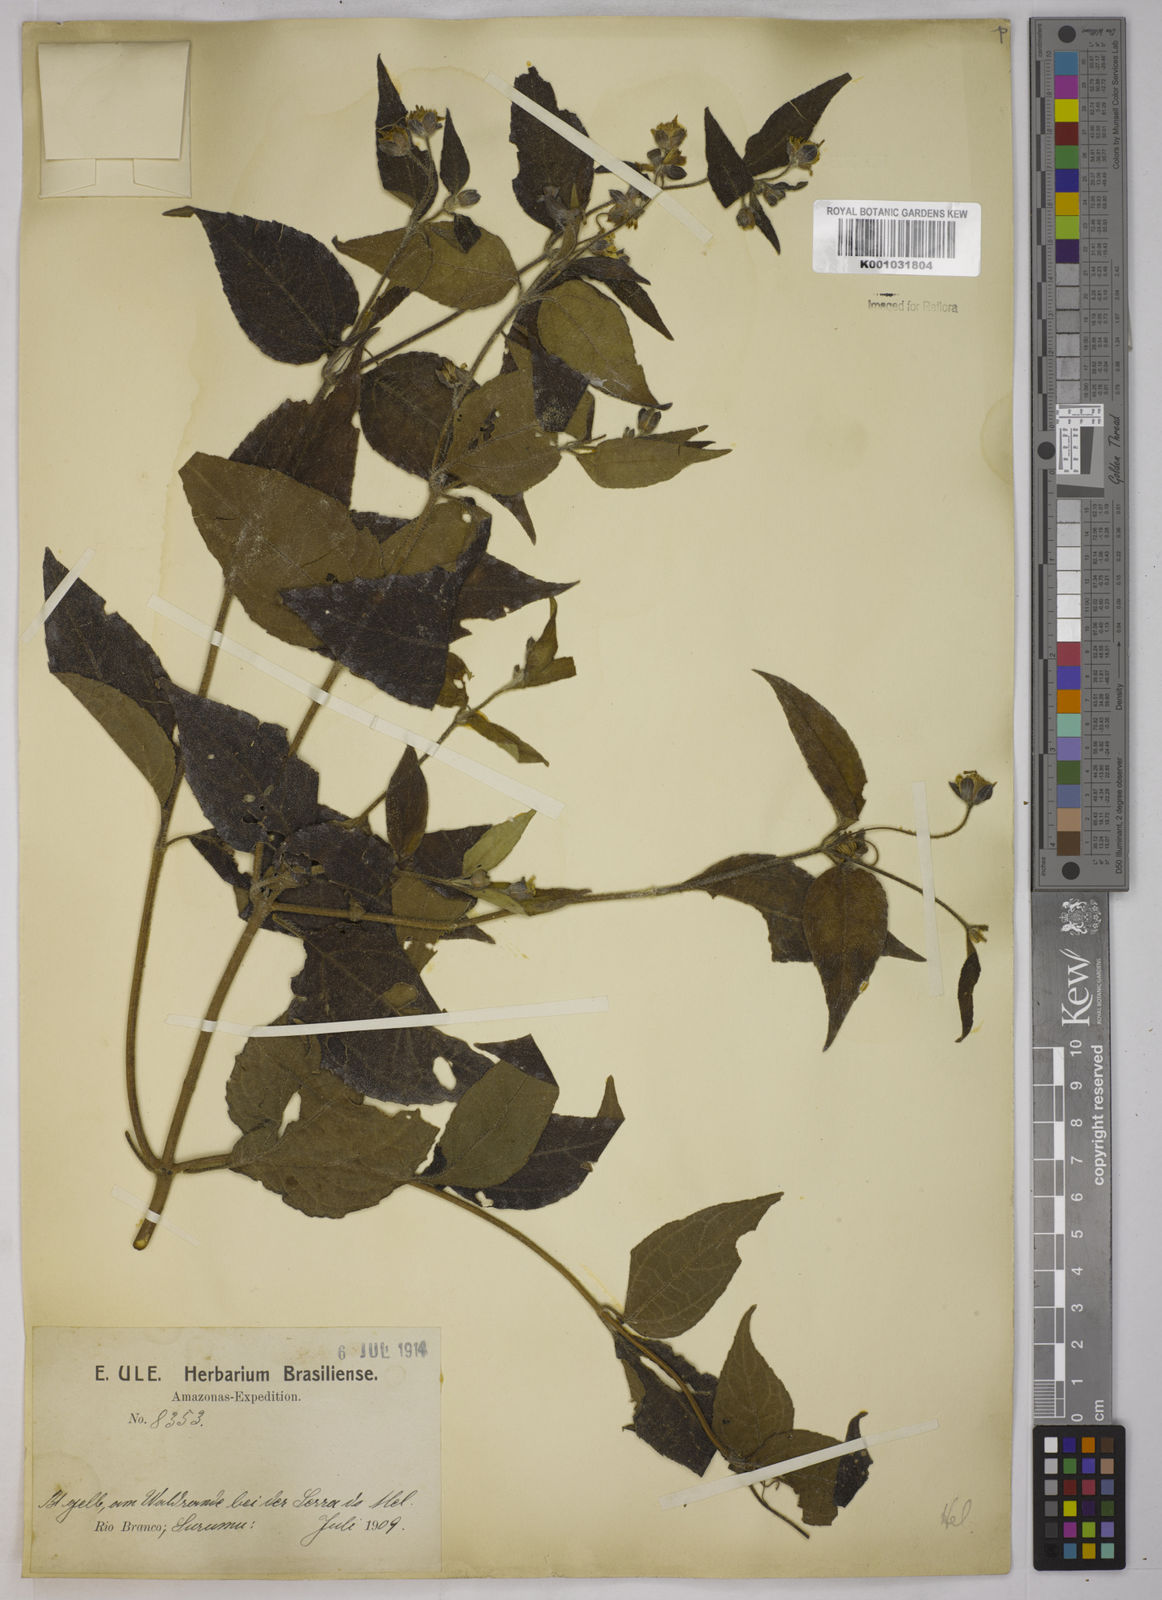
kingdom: Plantae
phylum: Tracheophyta
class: Magnoliopsida
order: Asterales
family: Asteraceae
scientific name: Asteraceae
